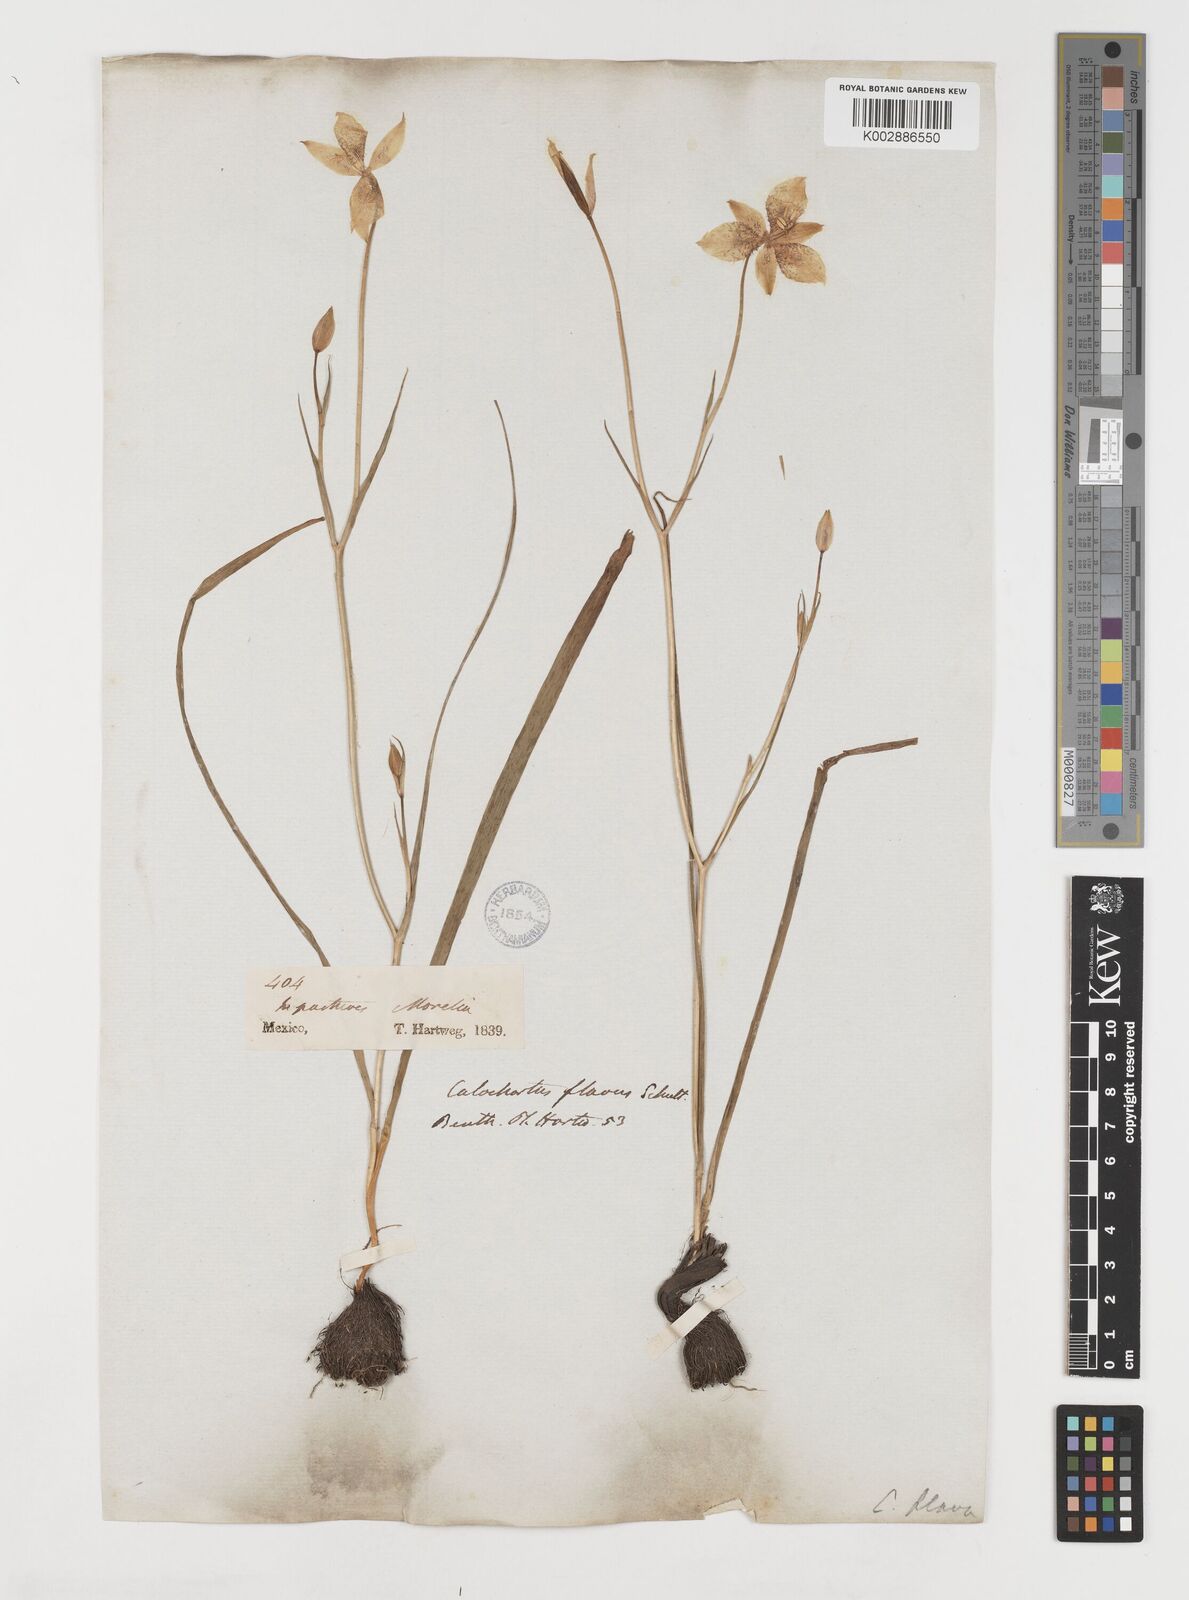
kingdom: Plantae
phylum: Tracheophyta
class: Liliopsida
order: Liliales
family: Liliaceae
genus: Calochortus
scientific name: Calochortus barbatus
